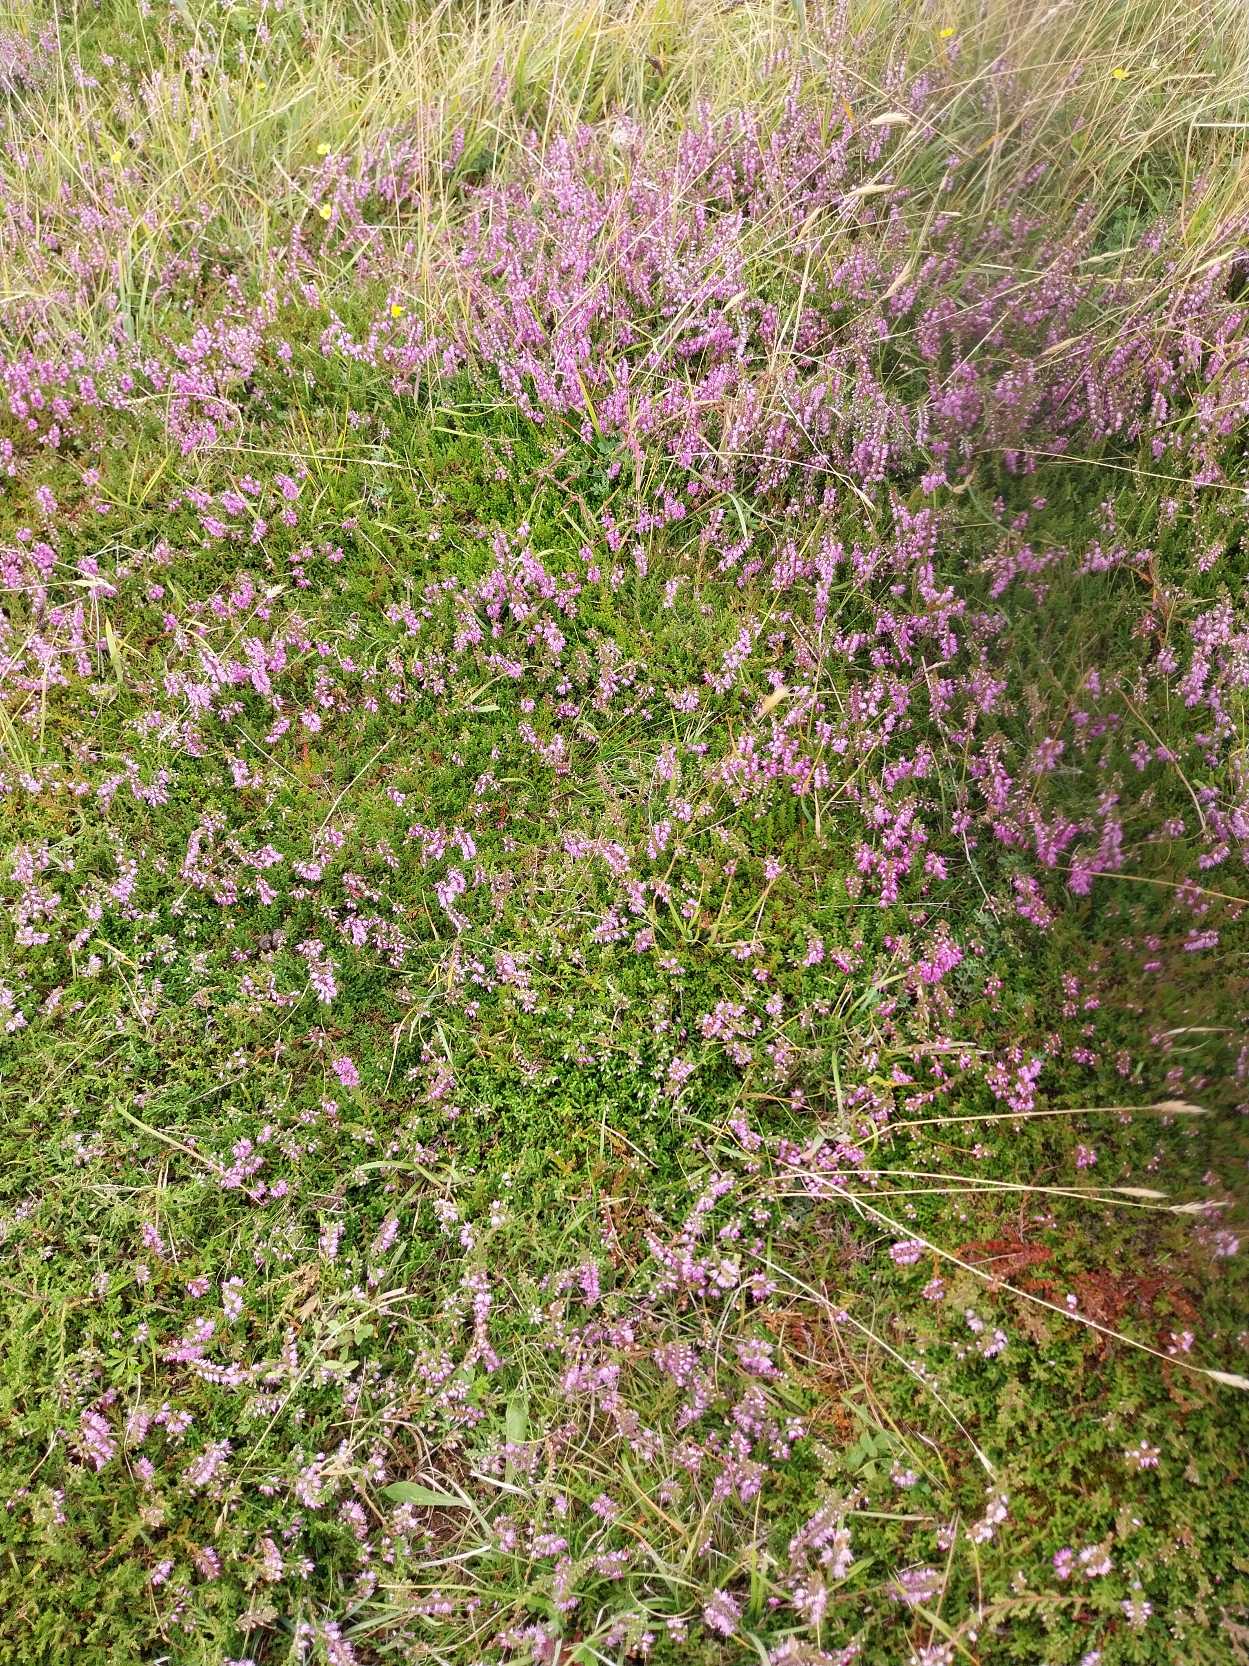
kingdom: Plantae
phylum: Tracheophyta
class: Magnoliopsida
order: Ericales
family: Ericaceae
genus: Calluna
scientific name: Calluna vulgaris
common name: Hedelyng
